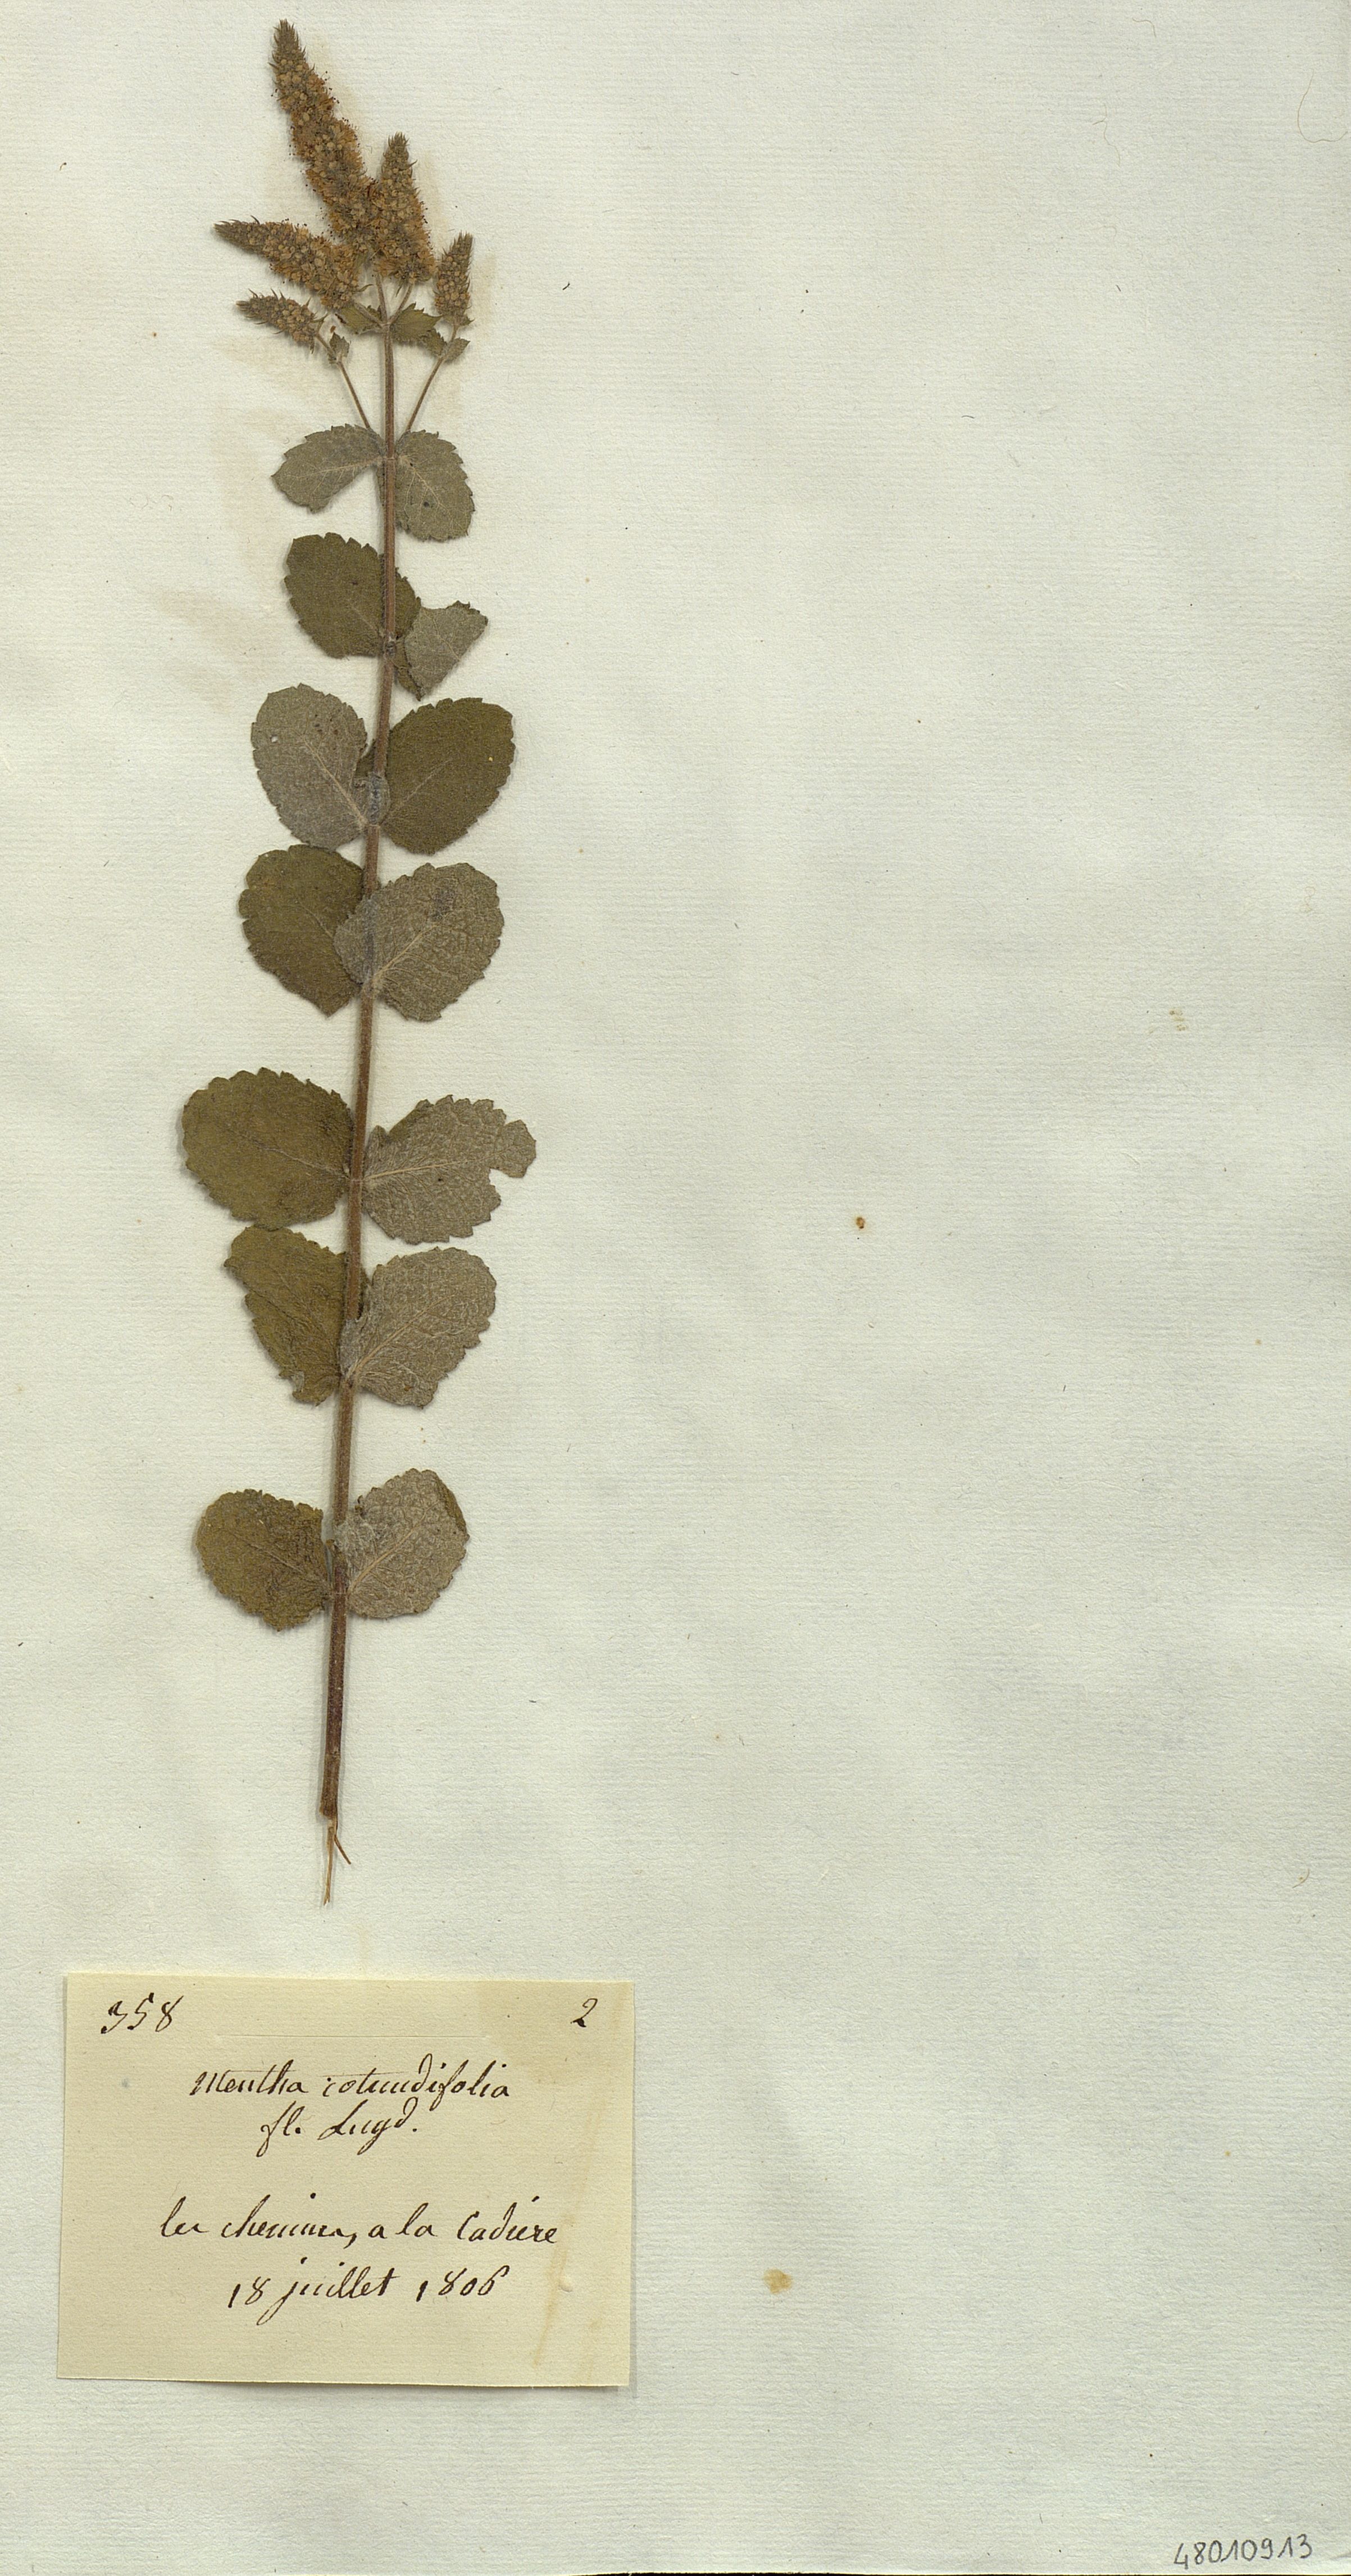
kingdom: Plantae
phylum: Tracheophyta
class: Magnoliopsida
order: Lamiales
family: Lamiaceae
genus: Mentha
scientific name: Mentha rotundifolia
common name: Bigleaf mint
